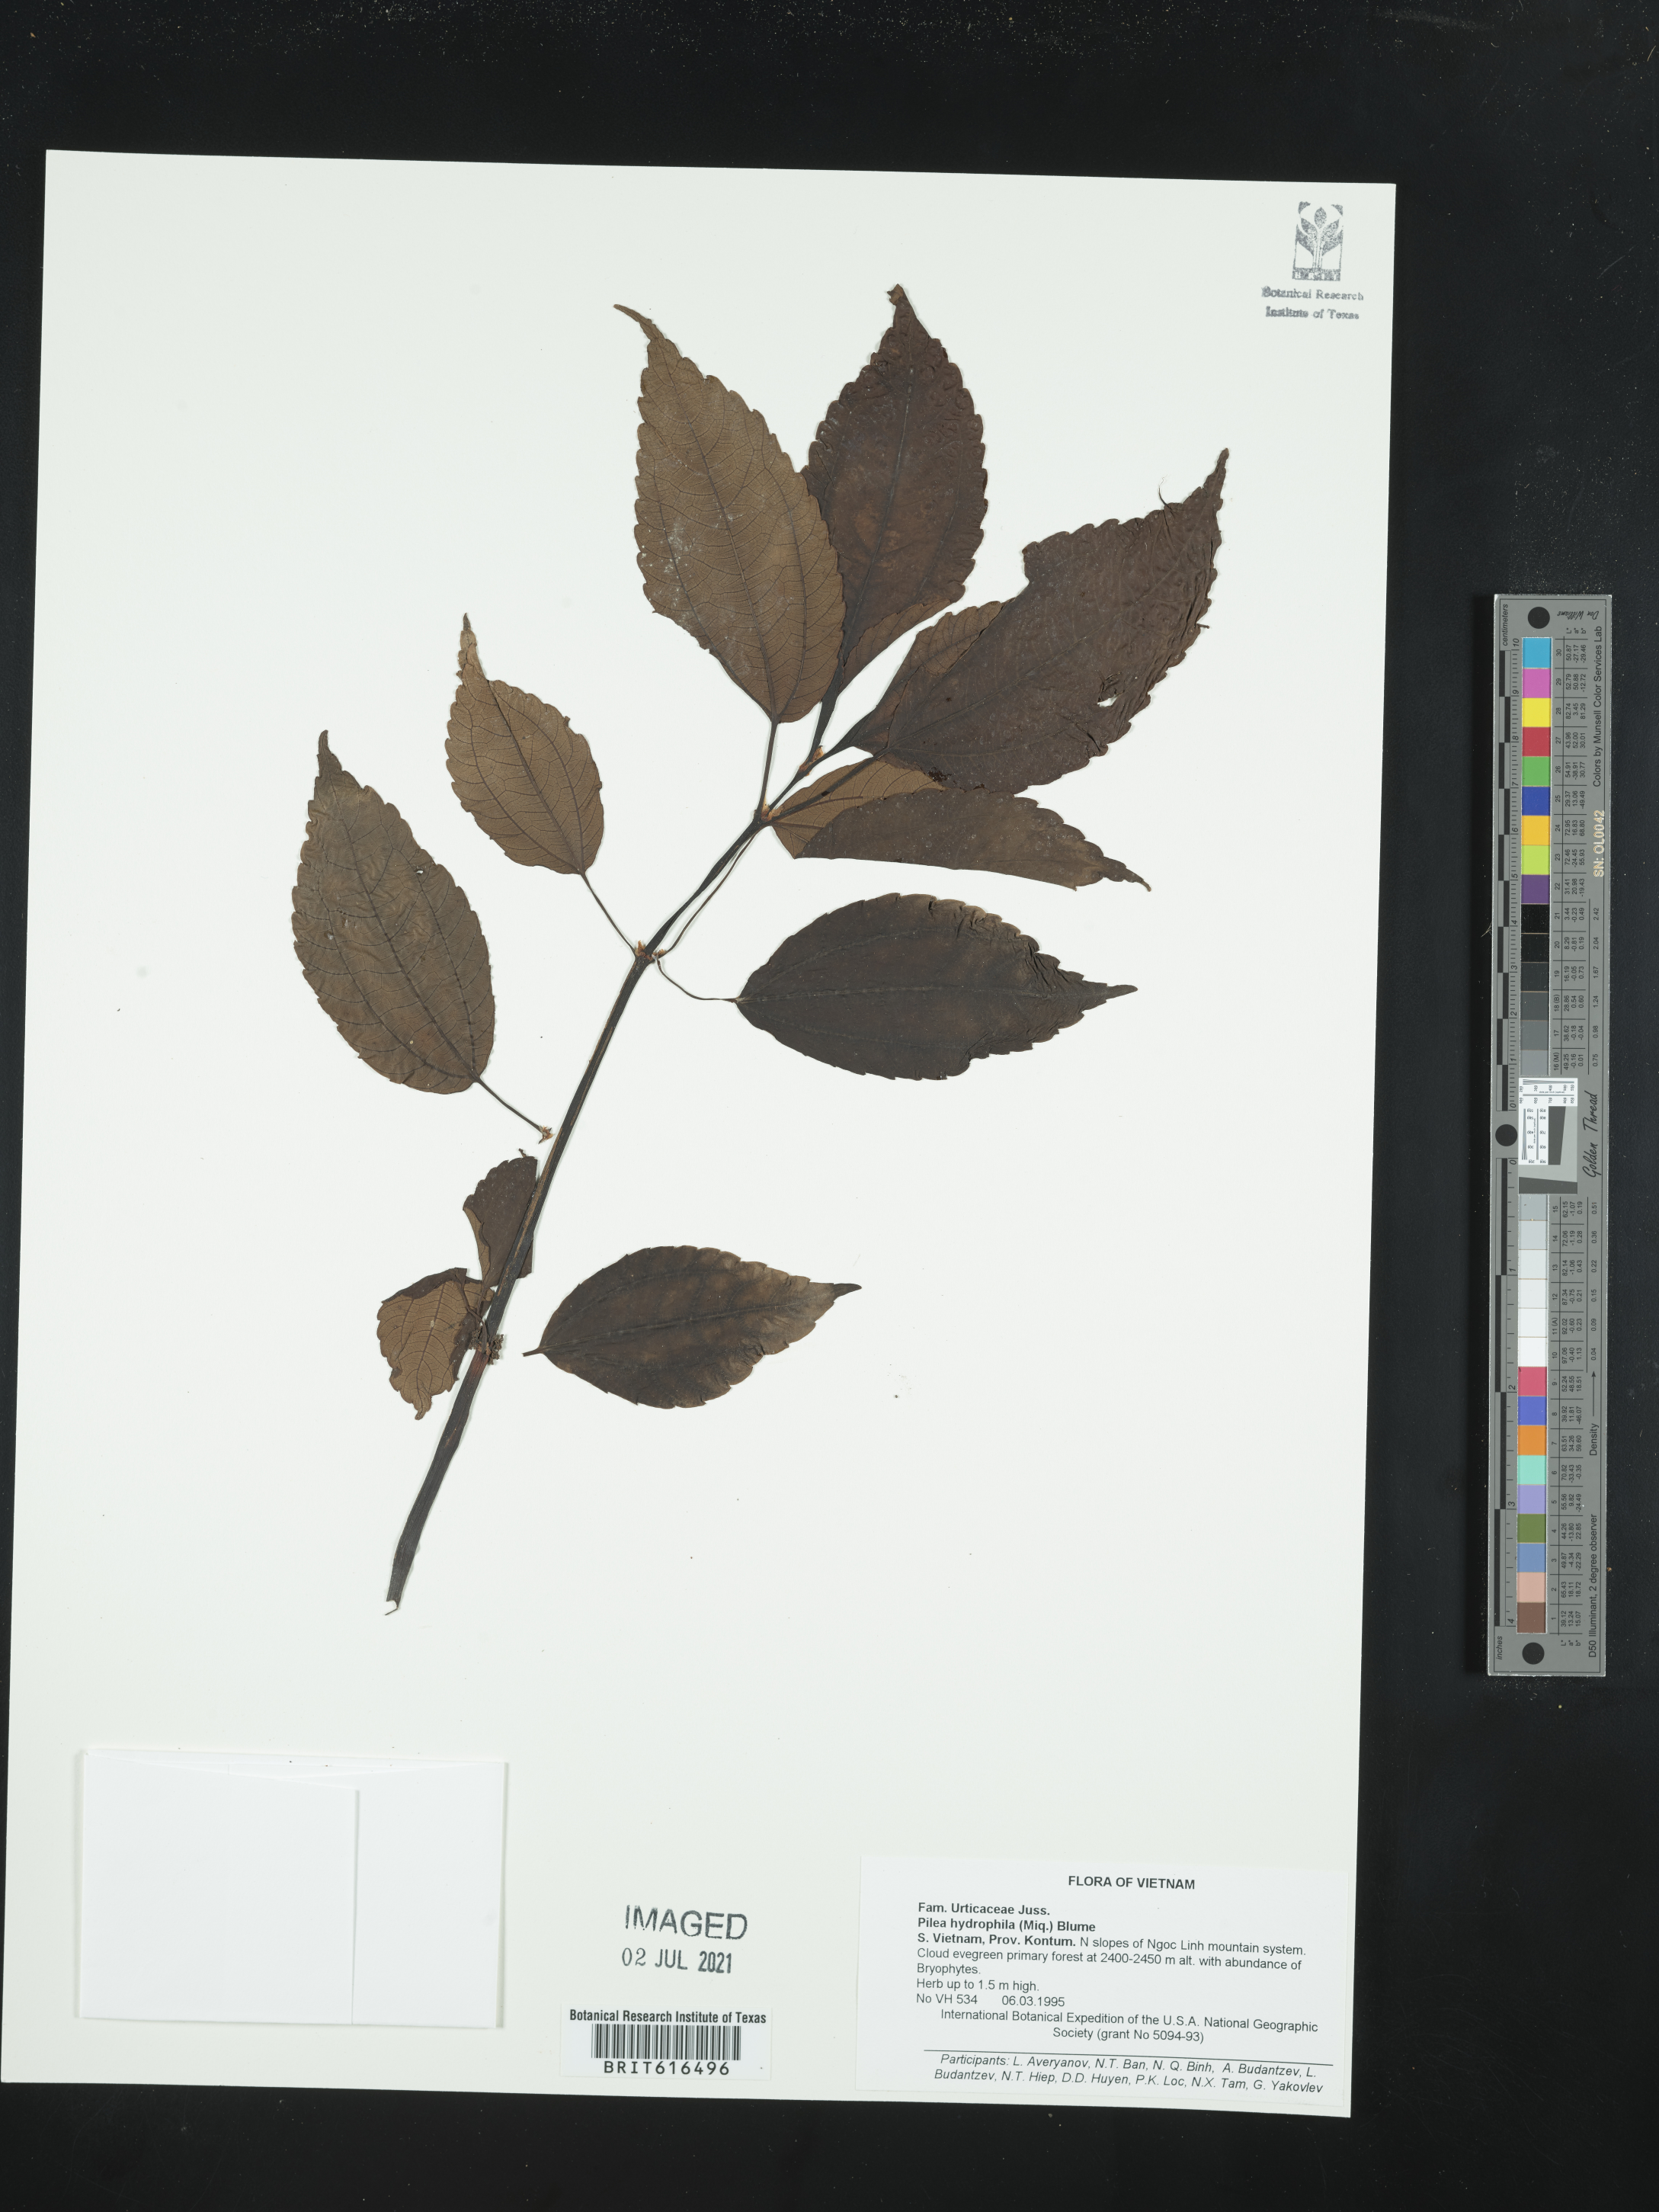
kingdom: Plantae
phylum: Tracheophyta
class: Magnoliopsida
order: Rosales
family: Urticaceae
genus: Pilea
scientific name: Pilea hygrophila
